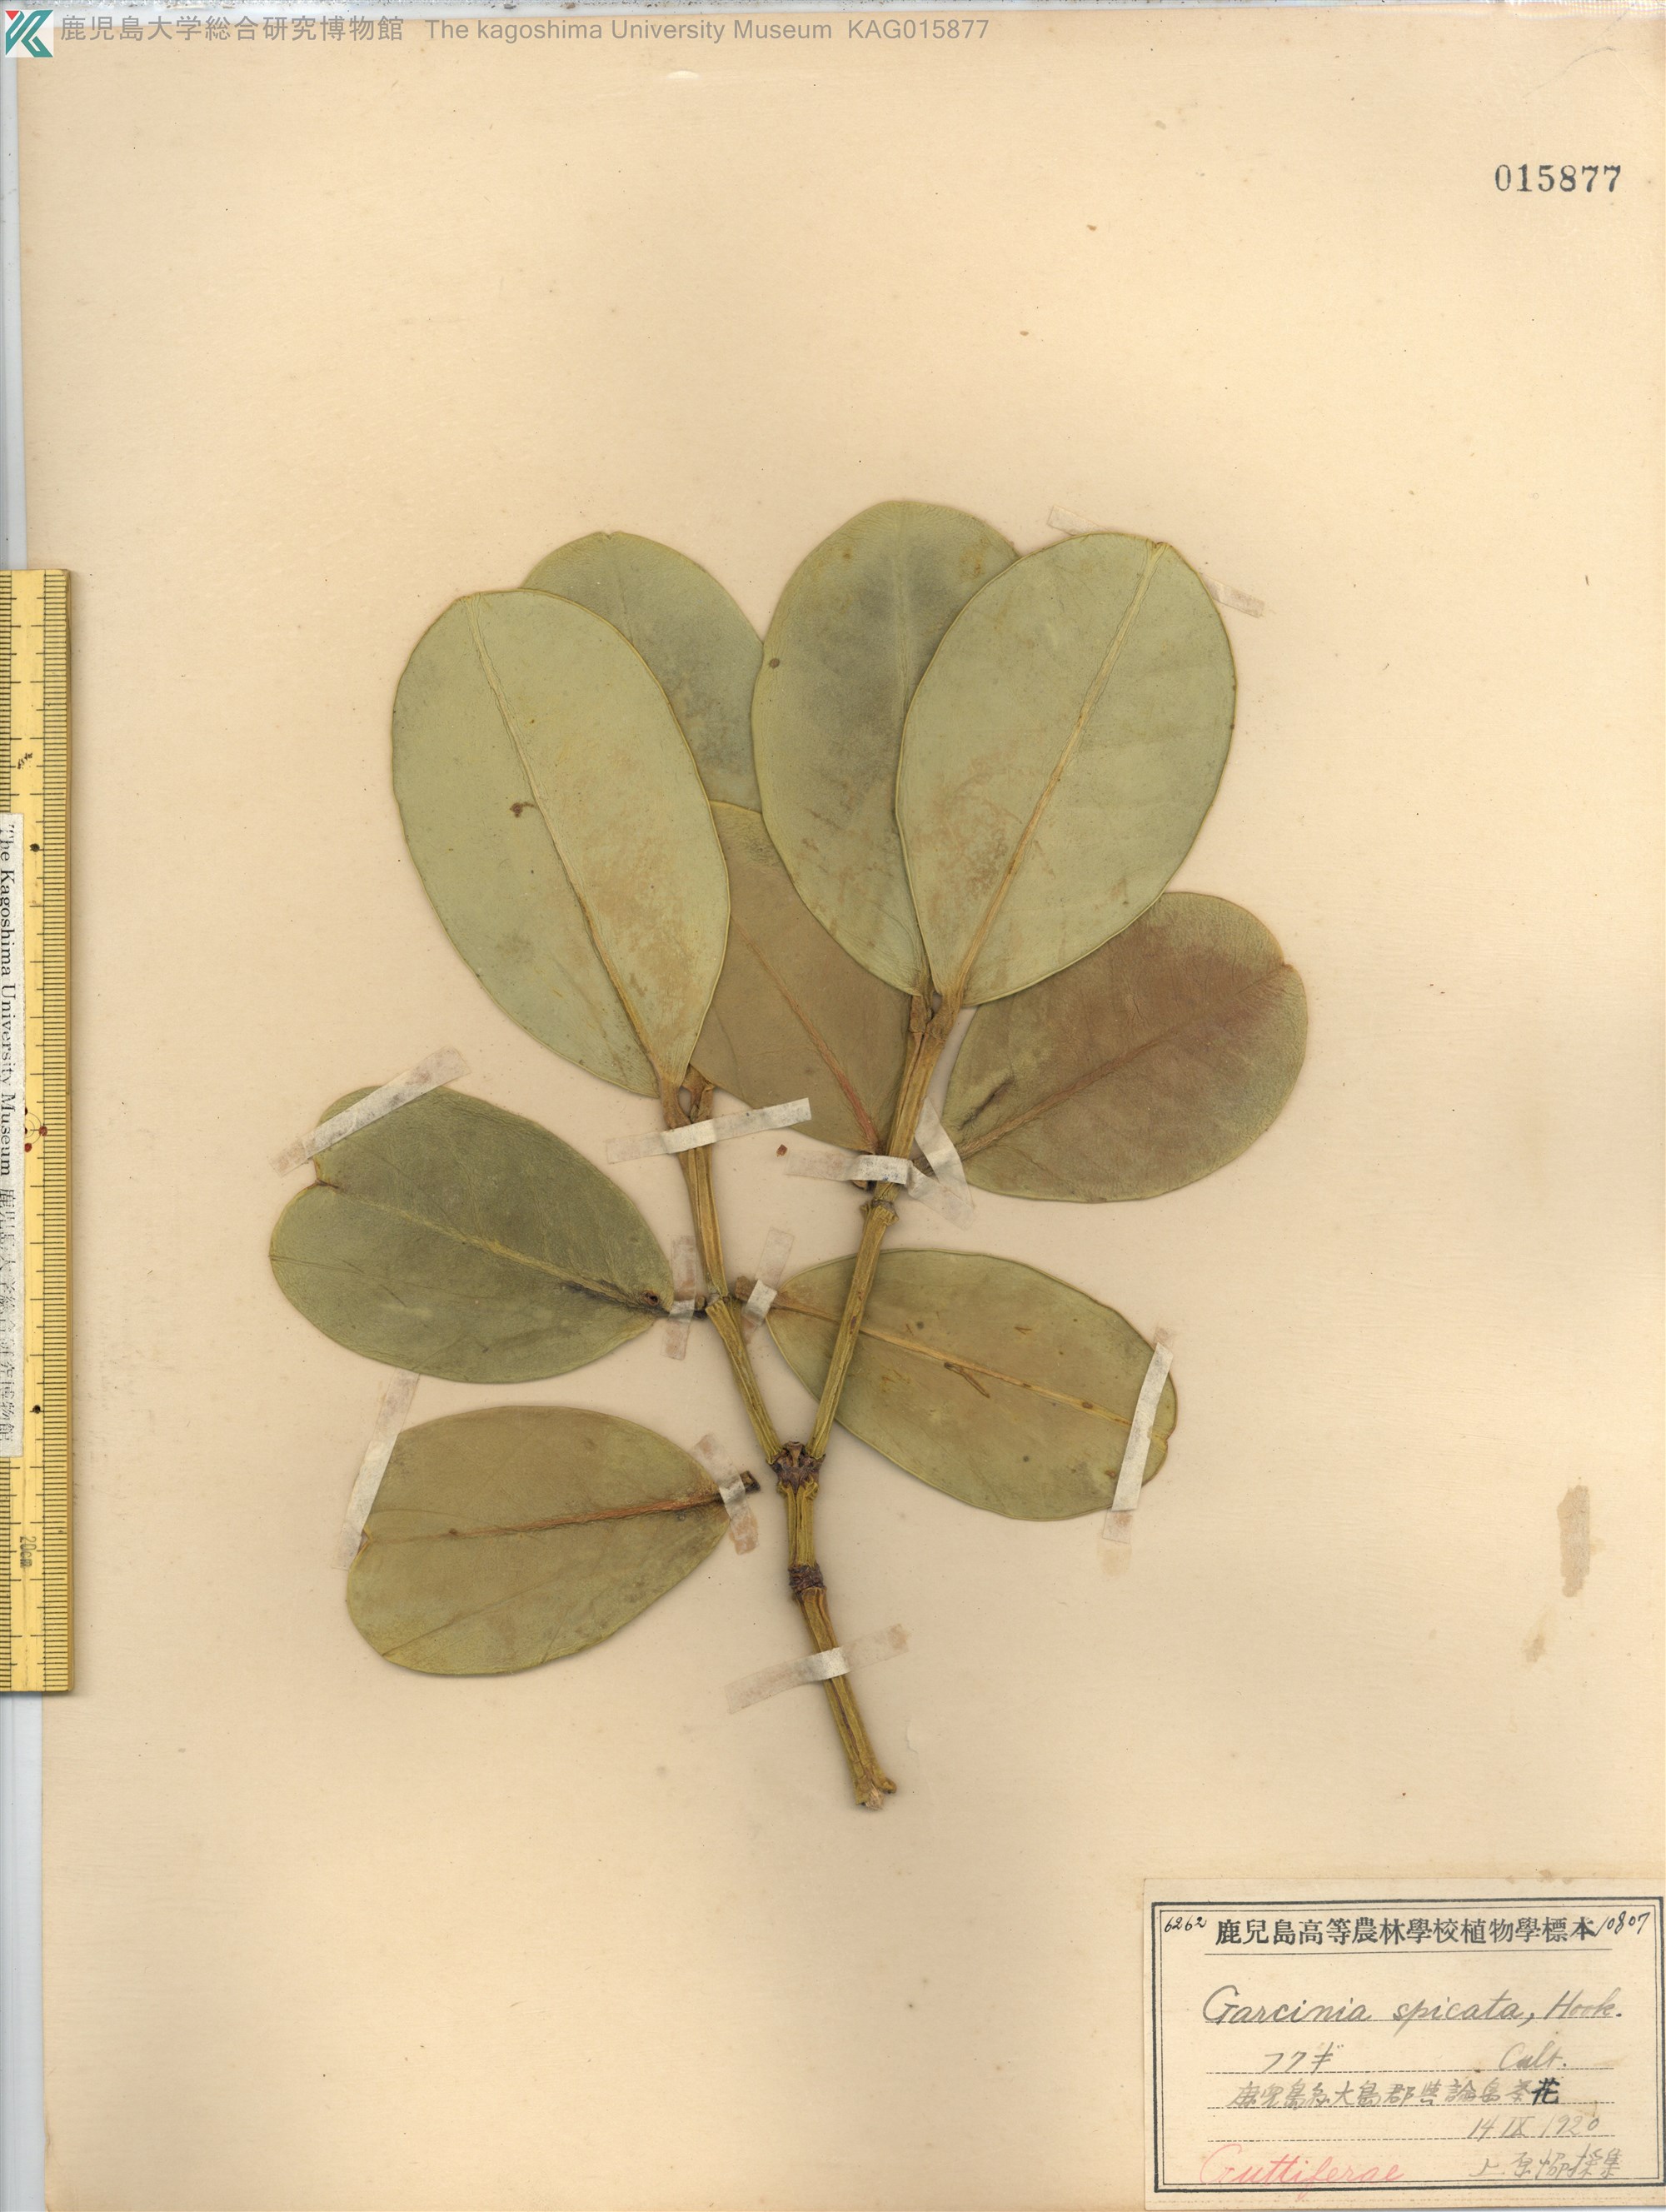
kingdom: Plantae
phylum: Tracheophyta
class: Magnoliopsida
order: Malpighiales
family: Clusiaceae
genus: Garcinia
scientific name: Garcinia subelliptica
